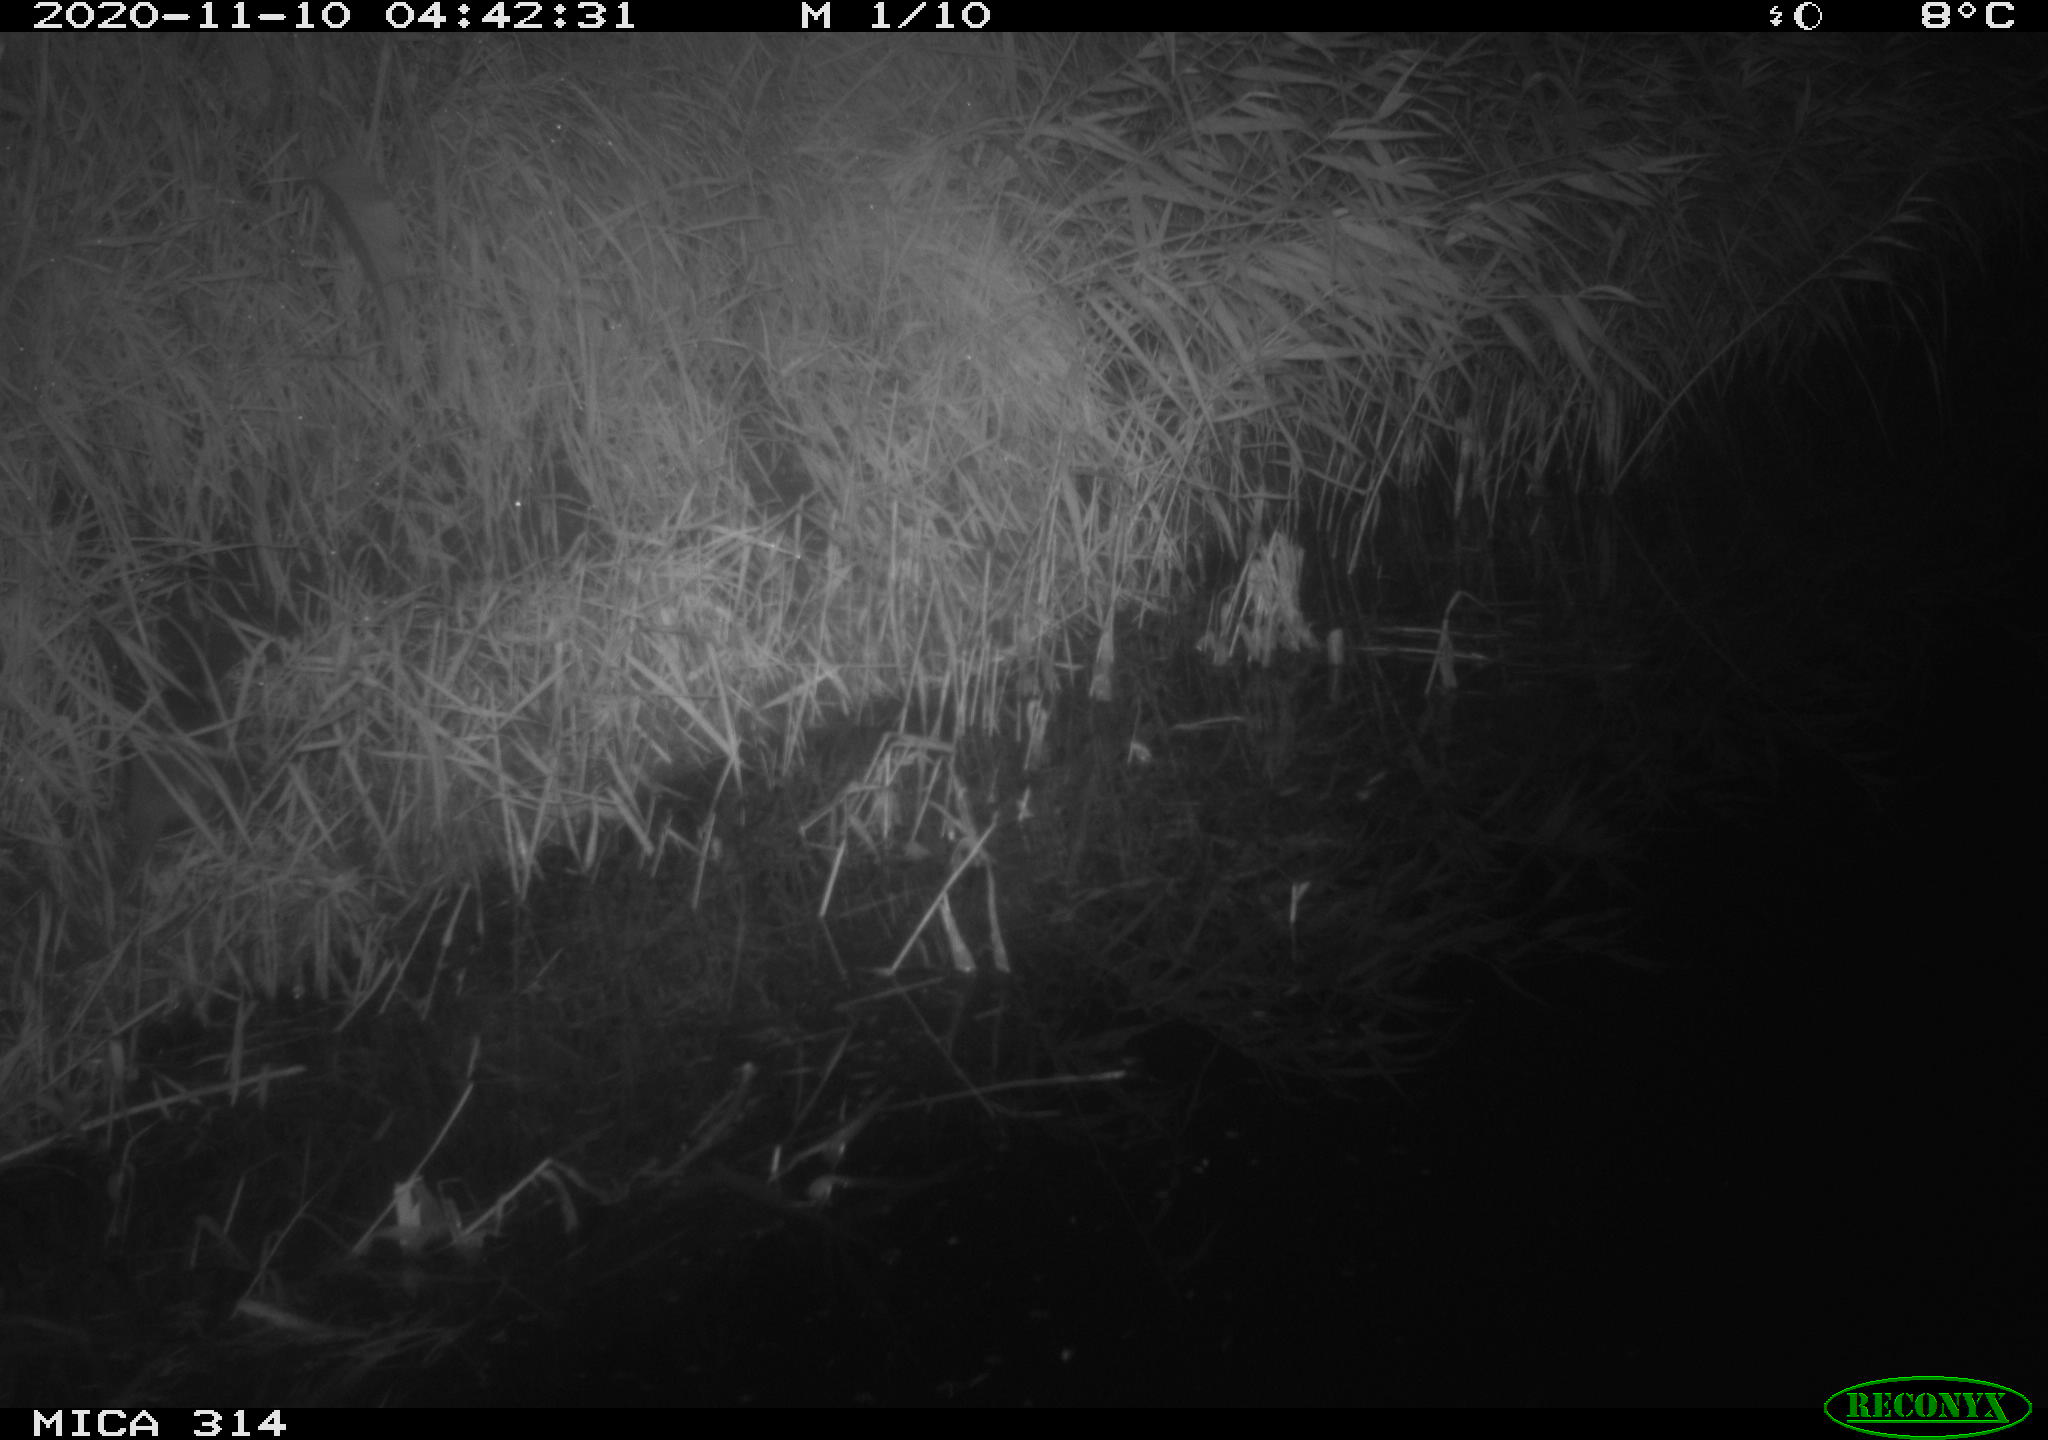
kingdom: Animalia
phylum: Chordata
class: Mammalia
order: Rodentia
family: Muridae
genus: Rattus
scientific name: Rattus norvegicus
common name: Brown rat
